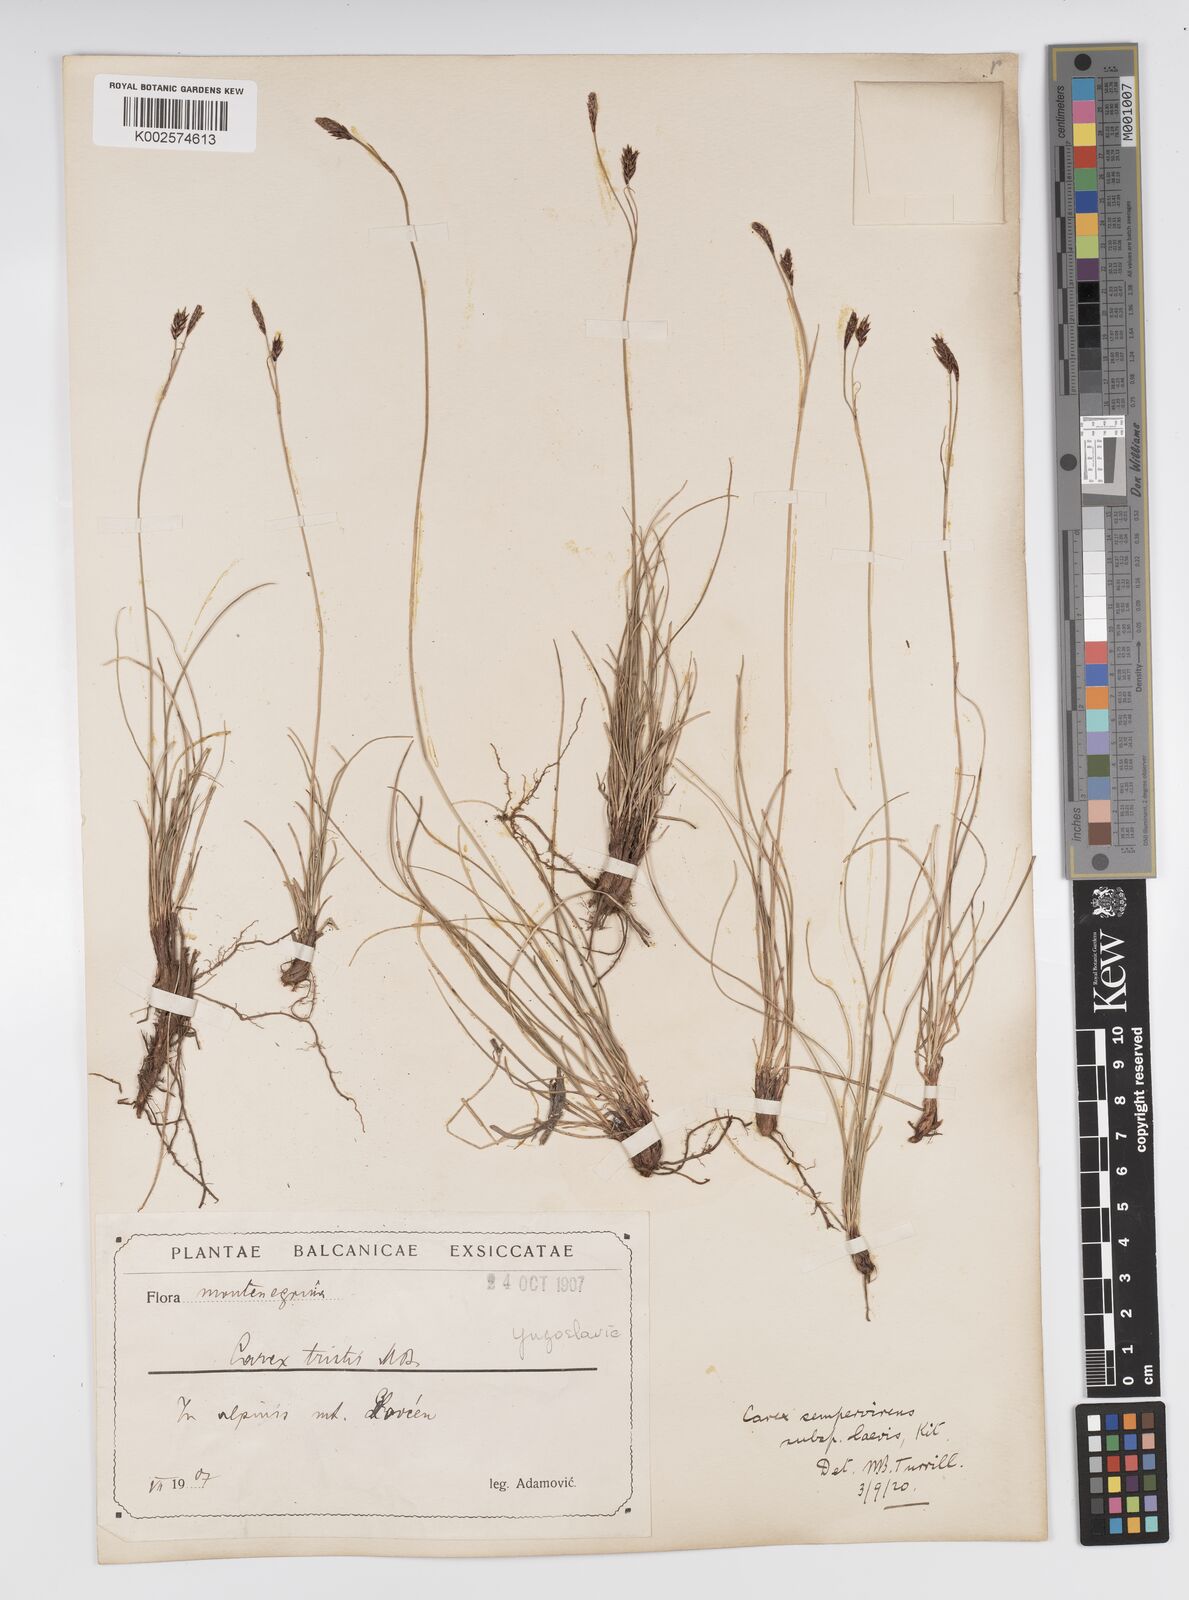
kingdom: Plantae
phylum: Tracheophyta
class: Liliopsida
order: Poales
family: Cyperaceae
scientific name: Cyperaceae
